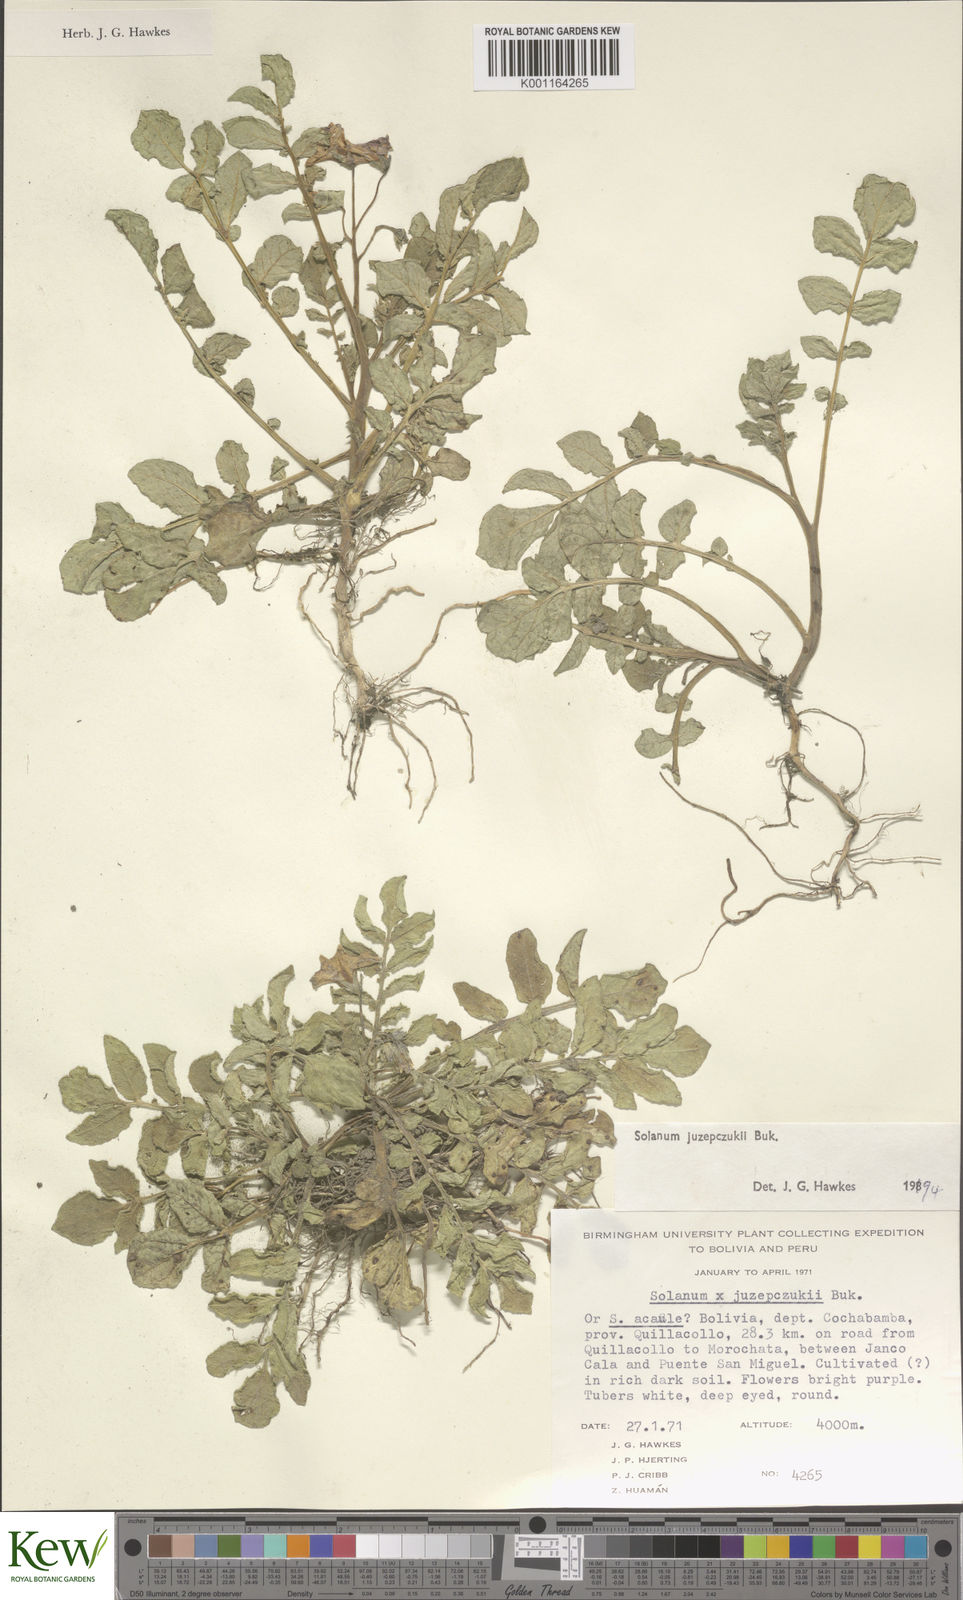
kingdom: Plantae
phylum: Tracheophyta
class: Magnoliopsida
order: Solanales
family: Solanaceae
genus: Solanum
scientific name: Solanum juzepczukii
